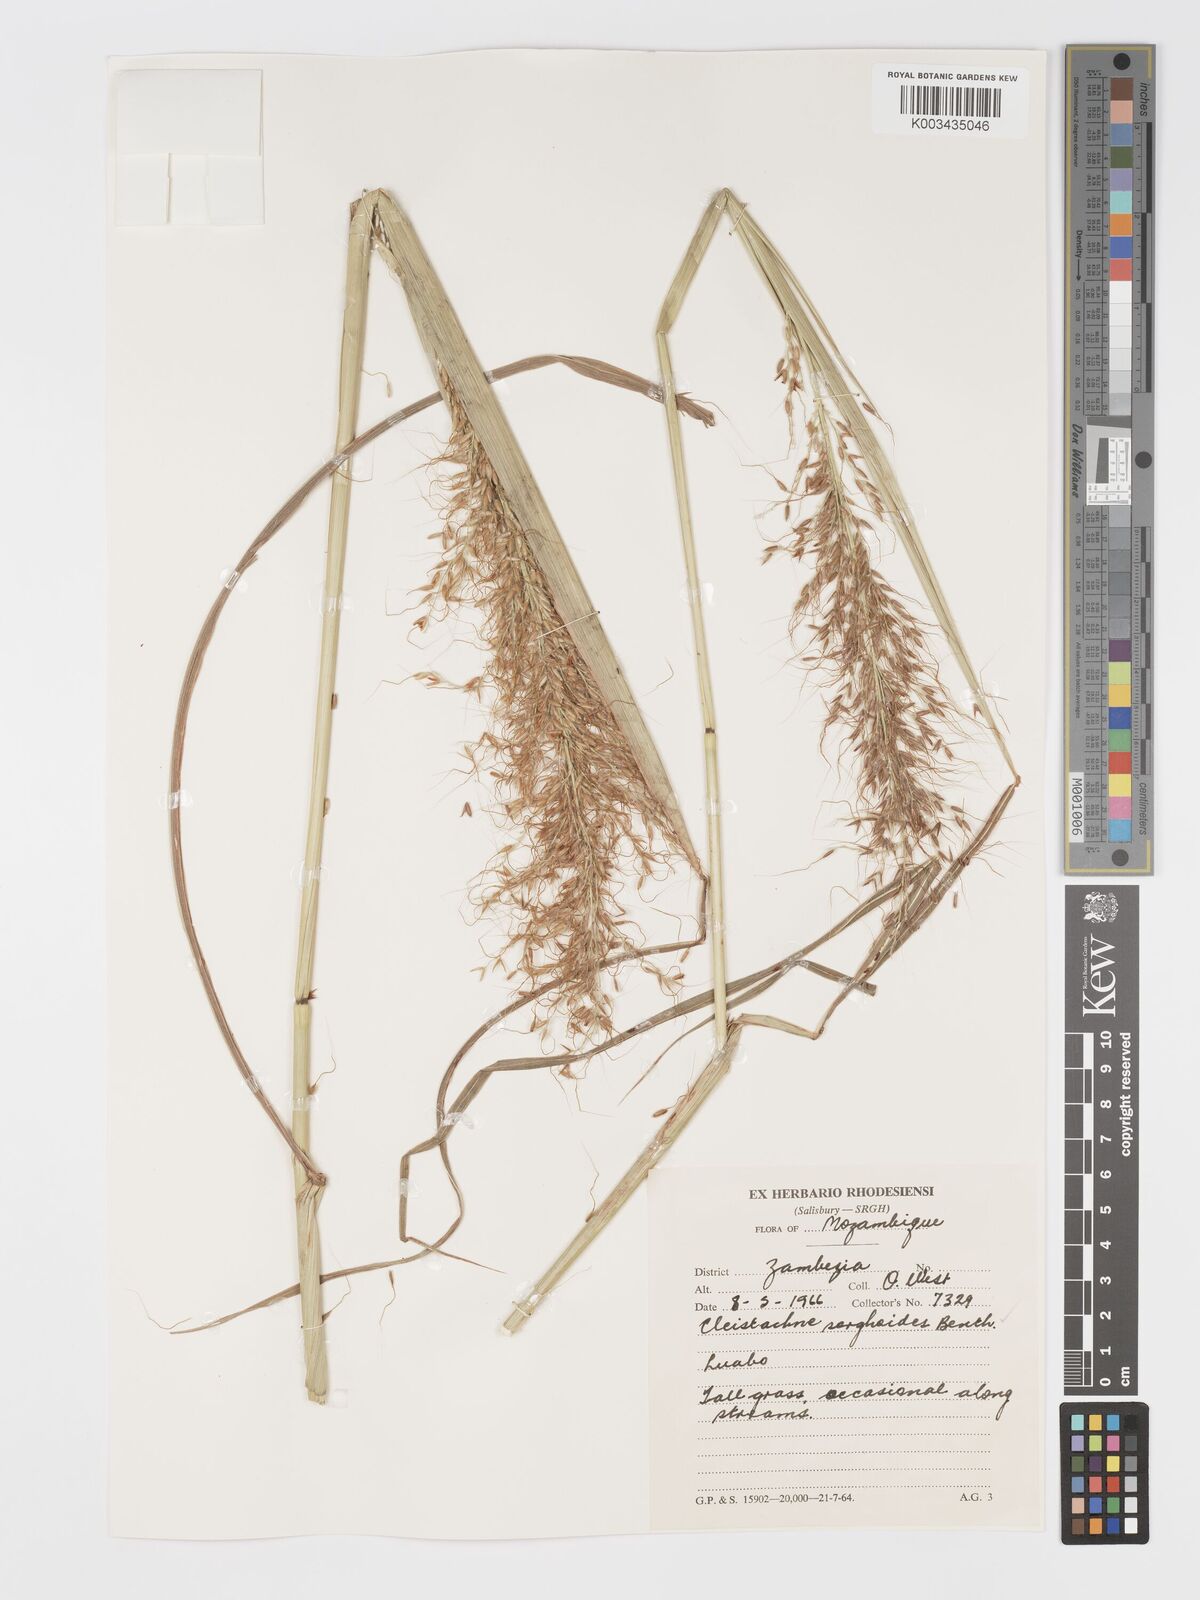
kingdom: Plantae
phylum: Tracheophyta
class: Liliopsida
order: Poales
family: Poaceae
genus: Cleistachne
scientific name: Cleistachne sorghoides
